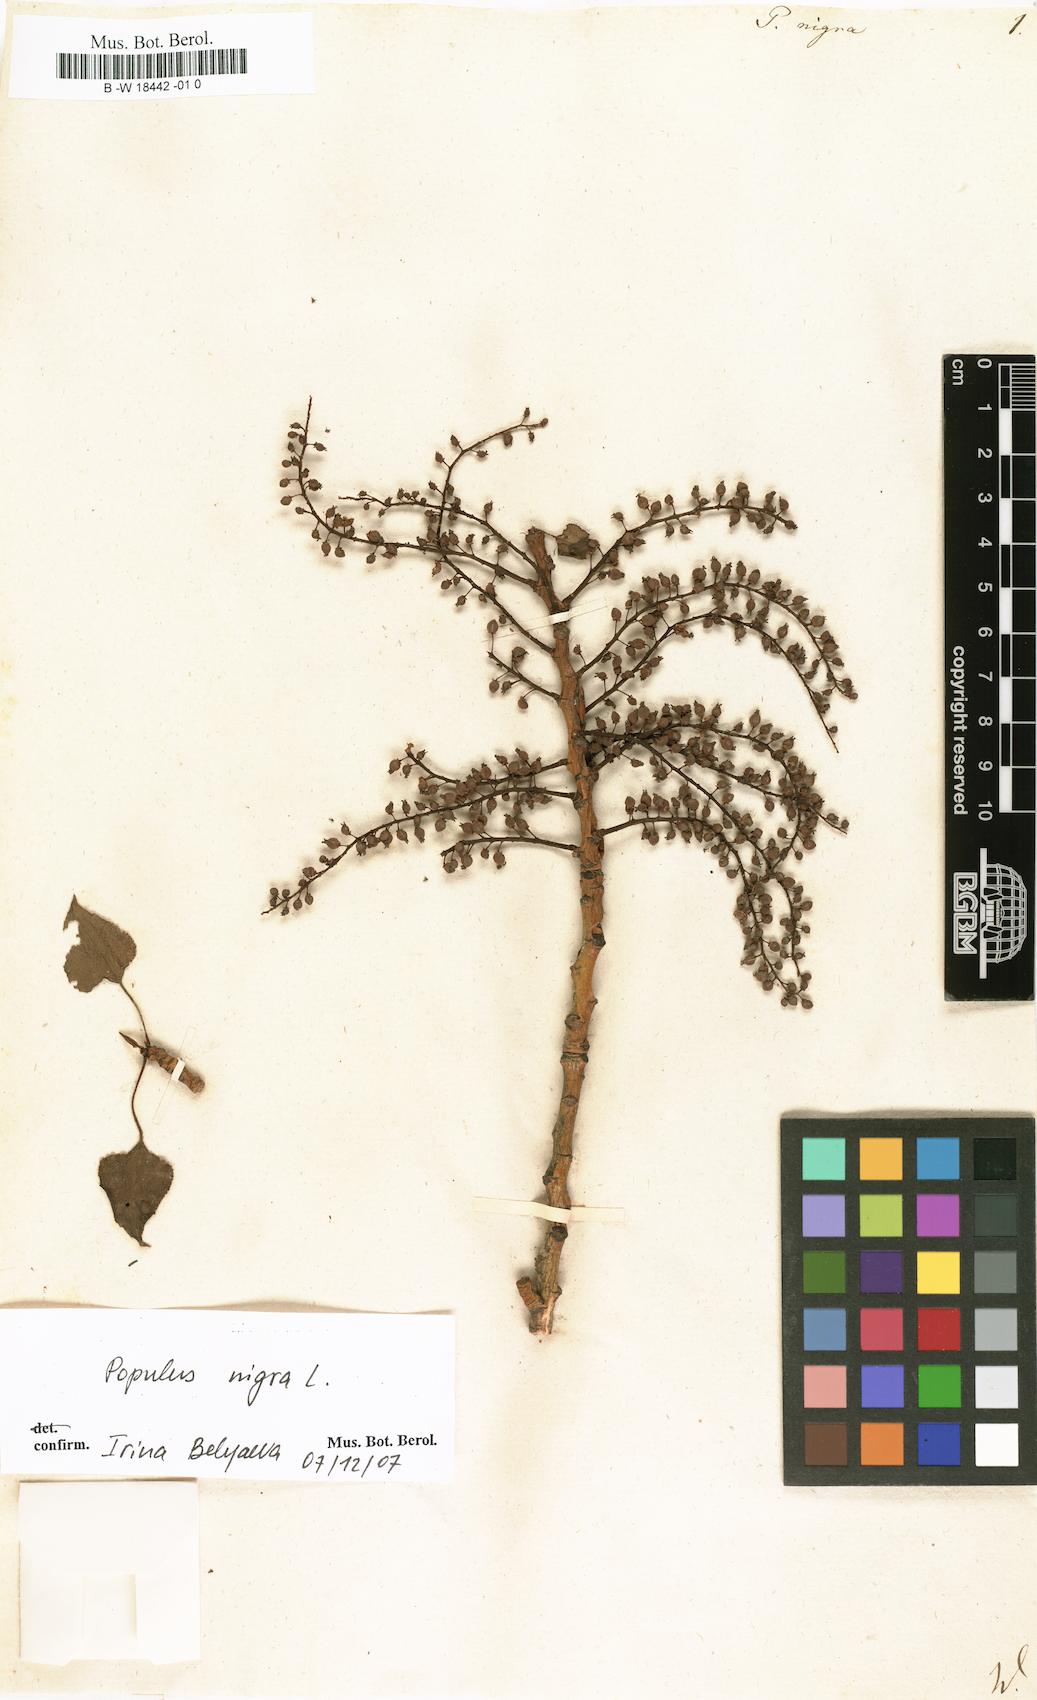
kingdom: Plantae
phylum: Tracheophyta
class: Magnoliopsida
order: Malpighiales
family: Salicaceae
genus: Populus
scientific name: Populus nigra
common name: Black poplar
